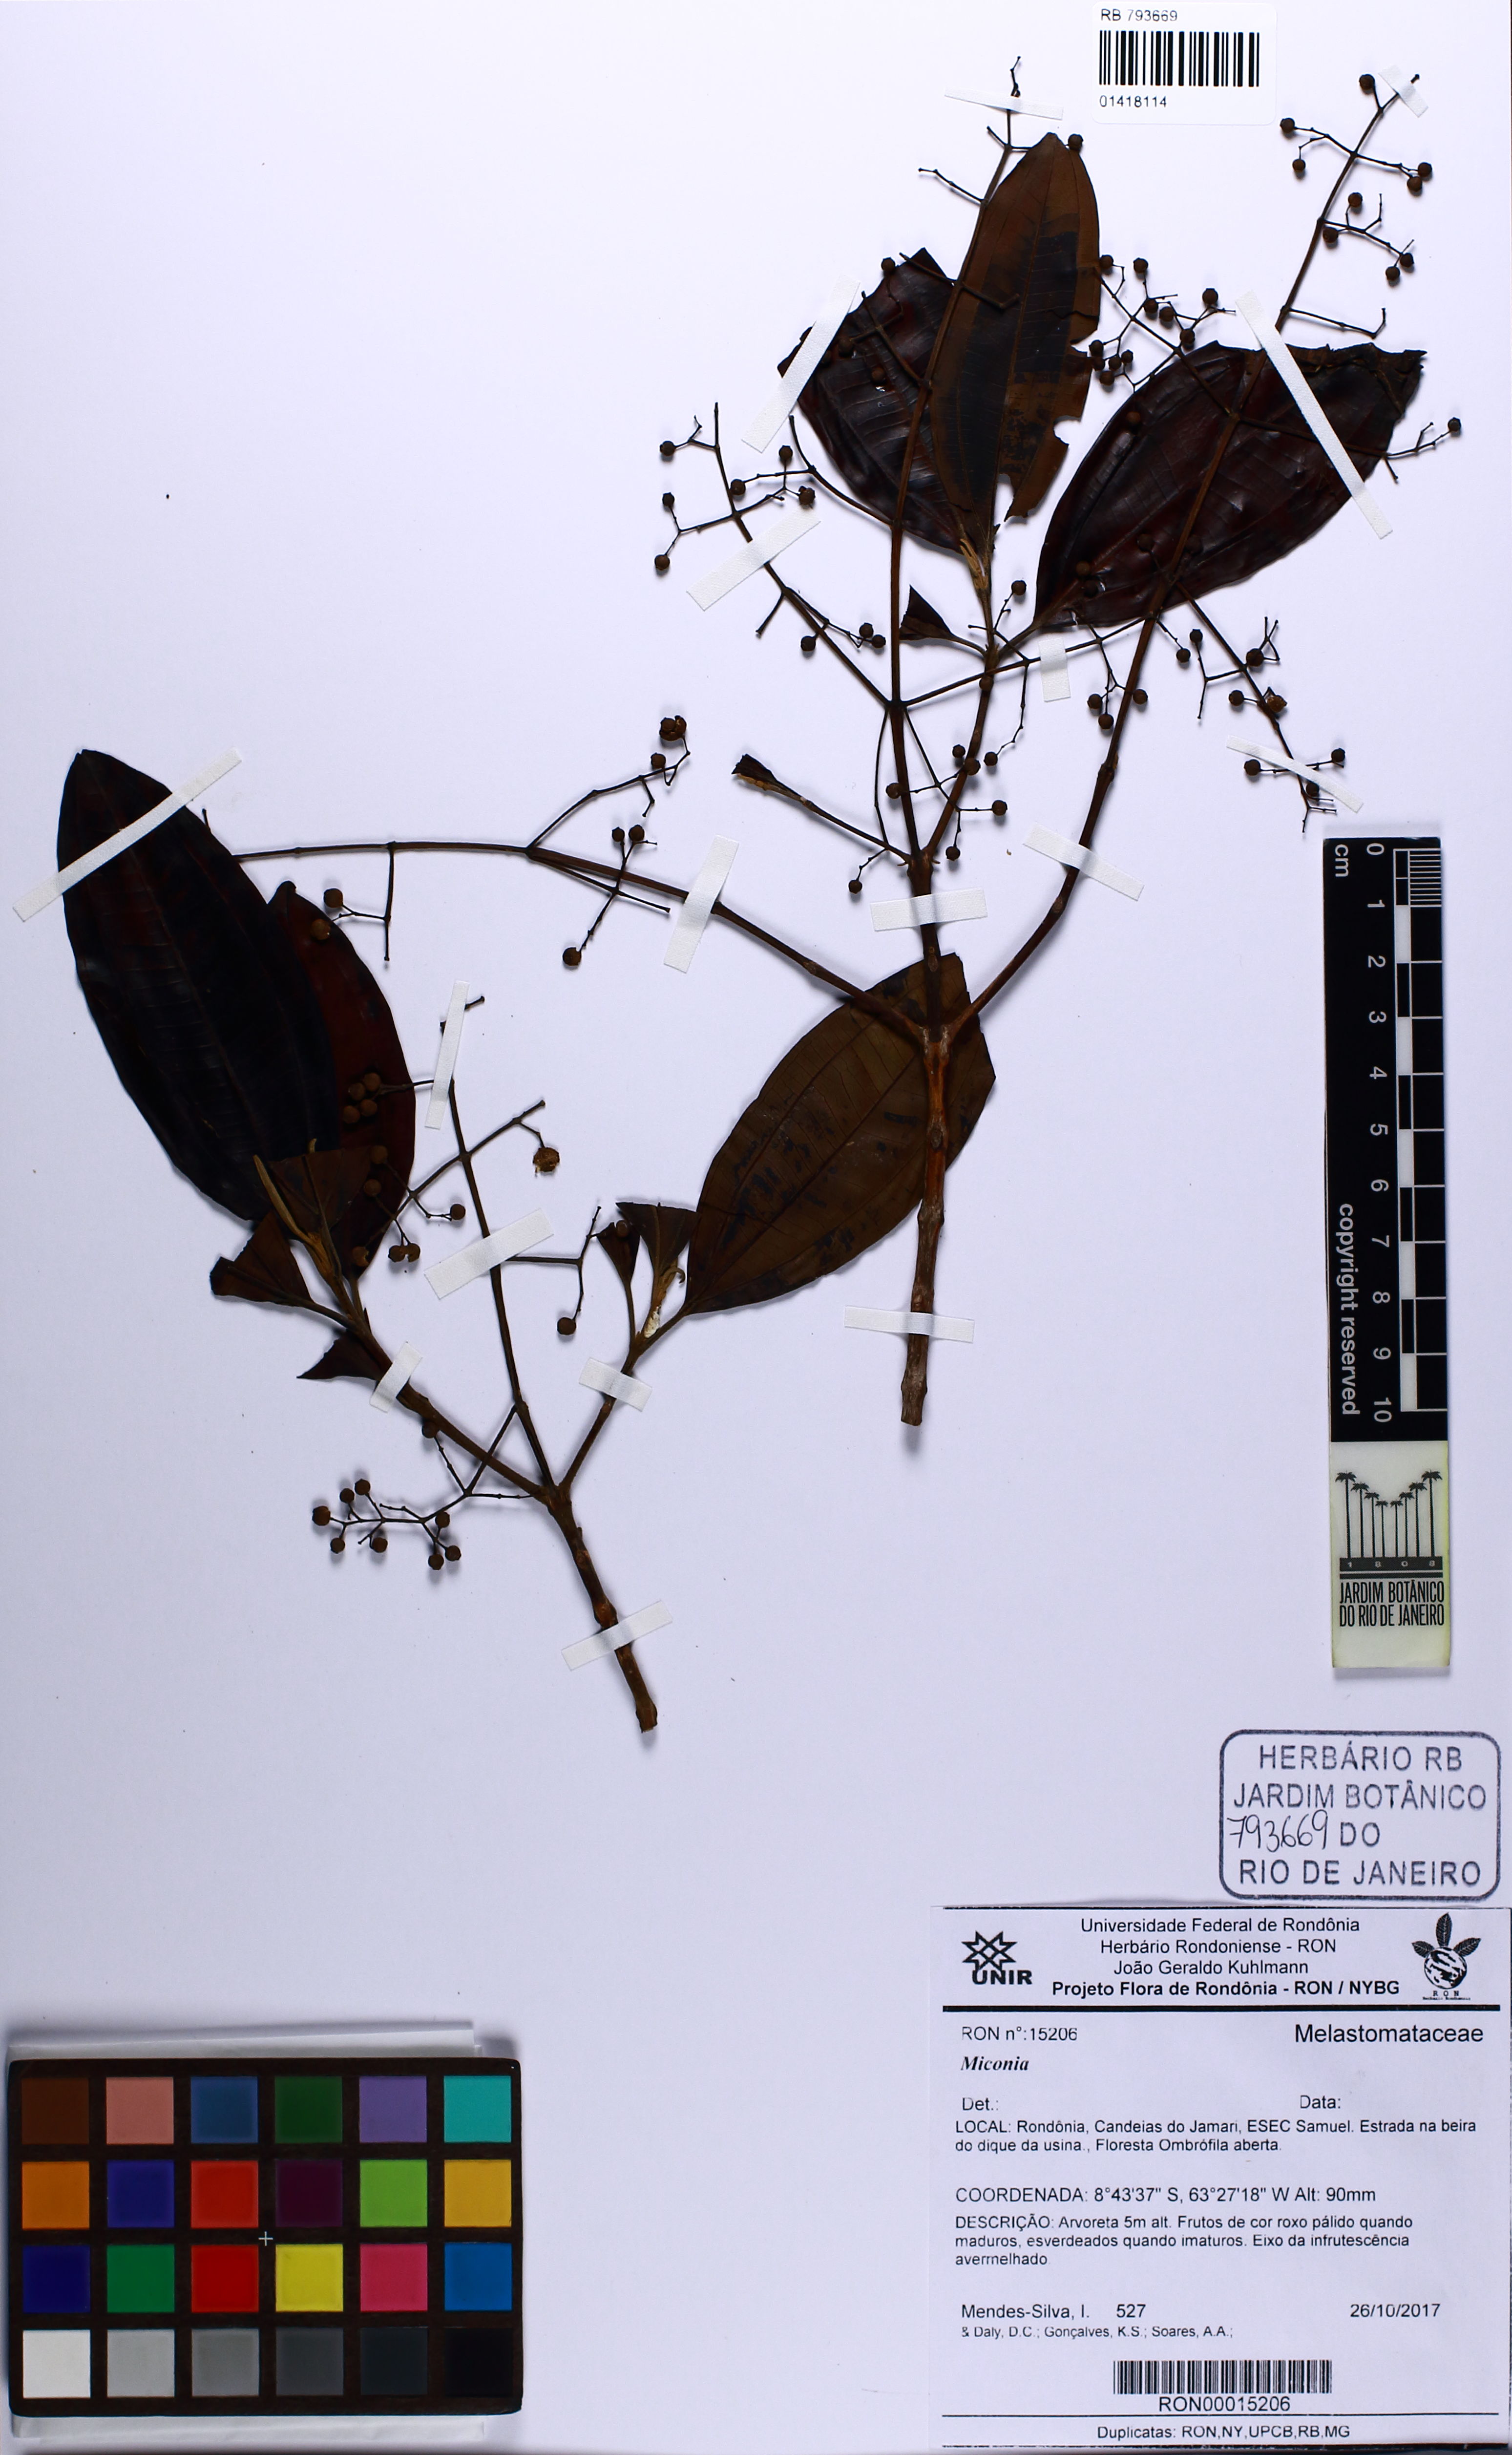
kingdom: Plantae
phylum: Tracheophyta
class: Magnoliopsida
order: Myrtales
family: Melastomataceae
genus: Miconia
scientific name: Miconia
